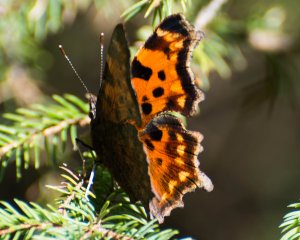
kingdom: Animalia
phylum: Arthropoda
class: Insecta
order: Lepidoptera
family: Nymphalidae
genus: Polygonia
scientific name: Polygonia faunus
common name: Green Comma
